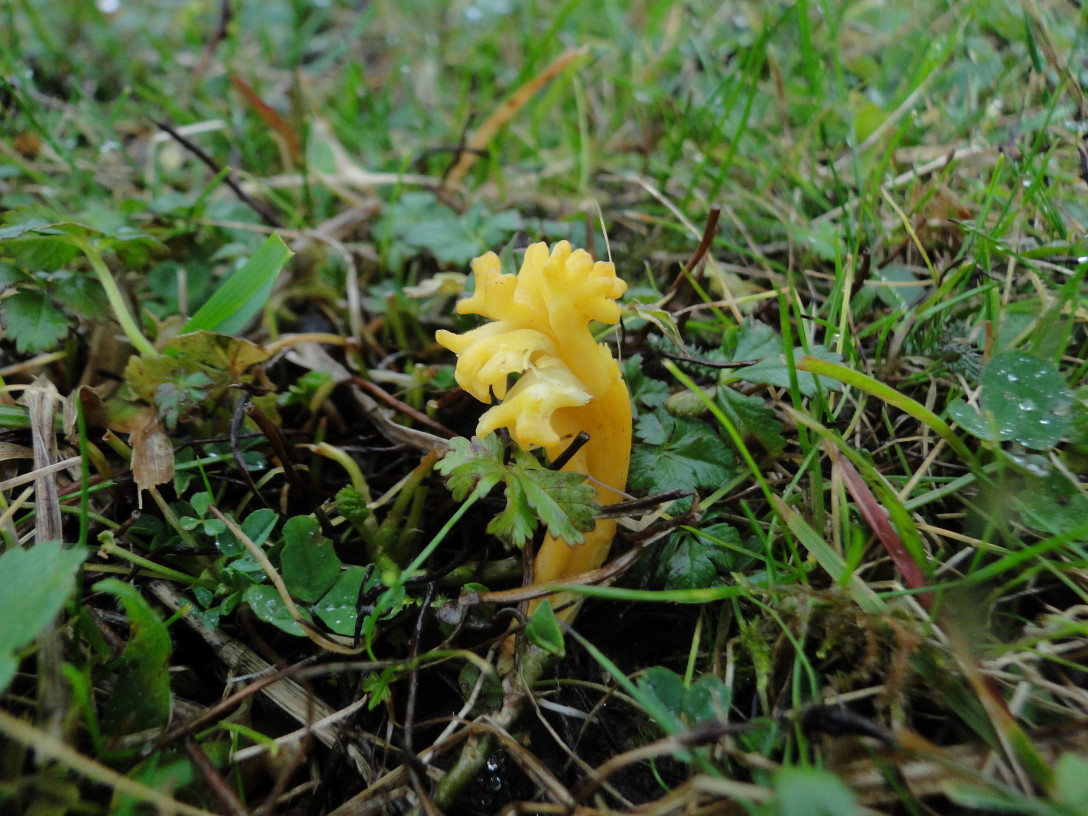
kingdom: Fungi
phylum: Basidiomycota
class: Agaricomycetes
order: Agaricales
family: Clavariaceae
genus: Clavulinopsis
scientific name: Clavulinopsis corniculata
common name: eng-køllesvamp
